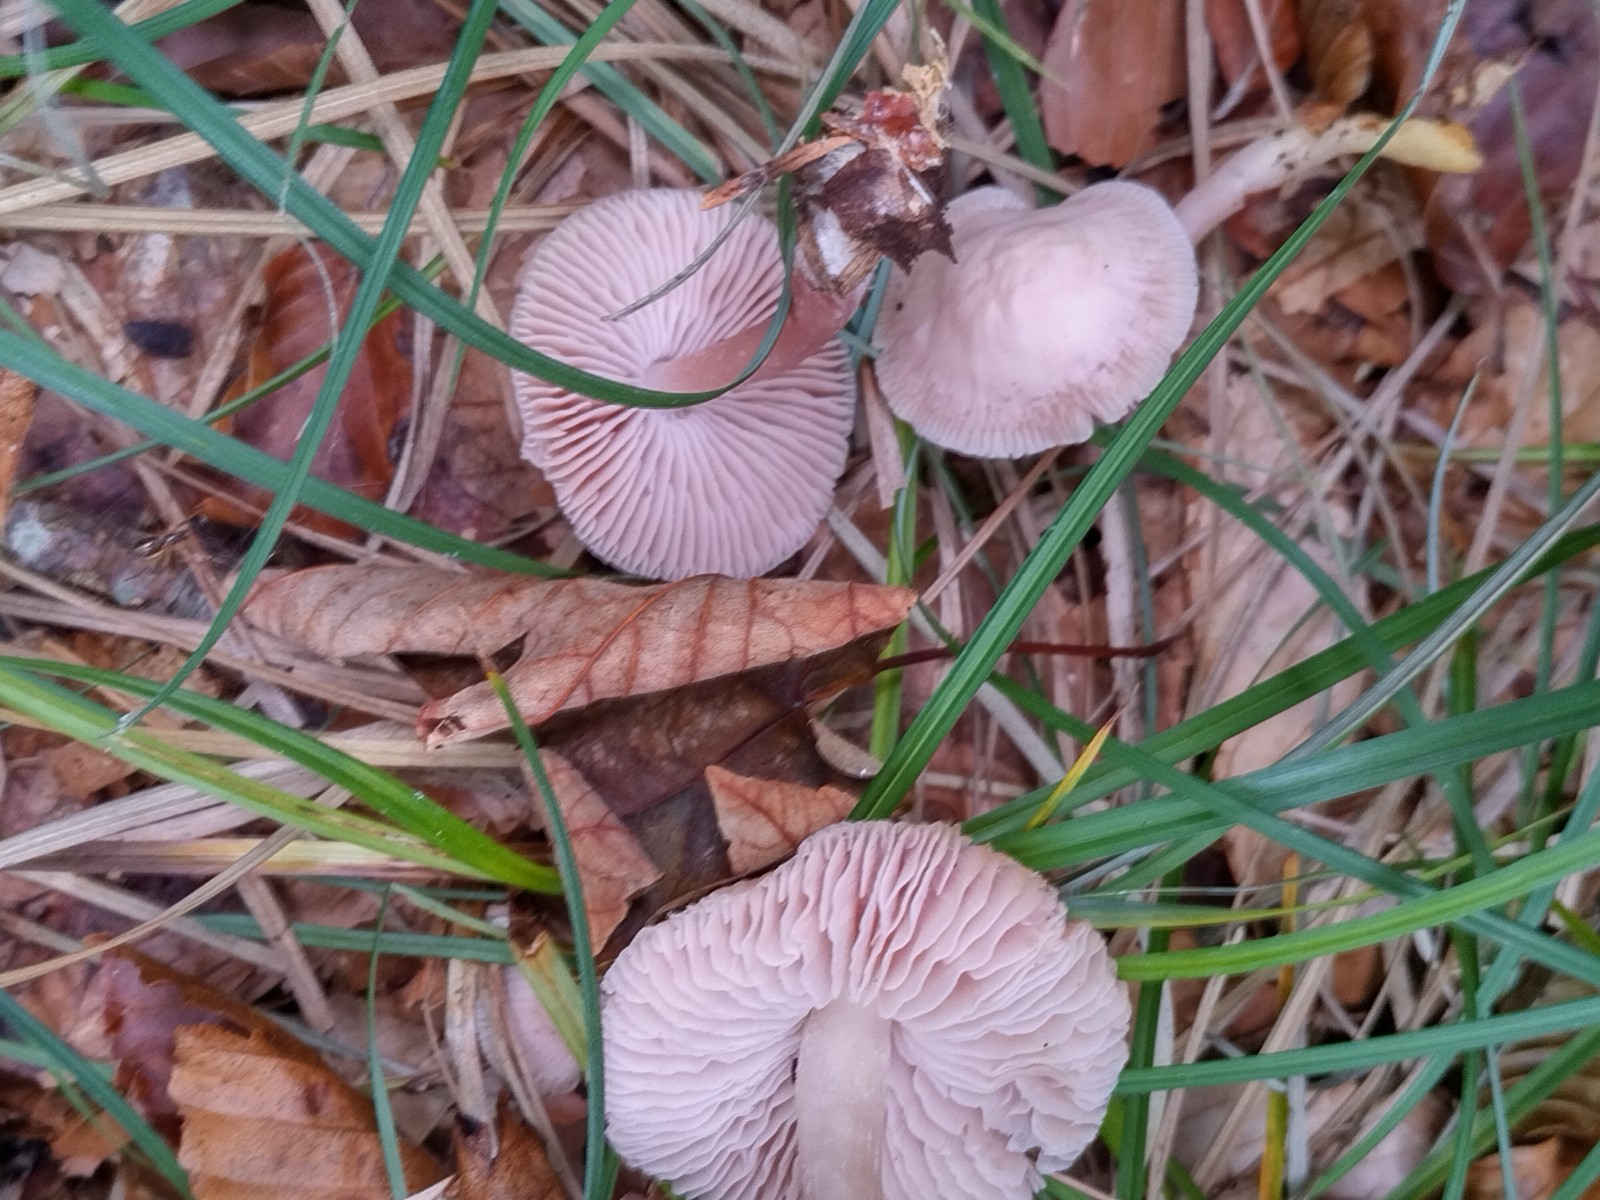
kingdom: Fungi
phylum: Basidiomycota
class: Agaricomycetes
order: Agaricales
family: Mycenaceae
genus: Mycena
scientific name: Mycena rosea
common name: rosa huesvamp
